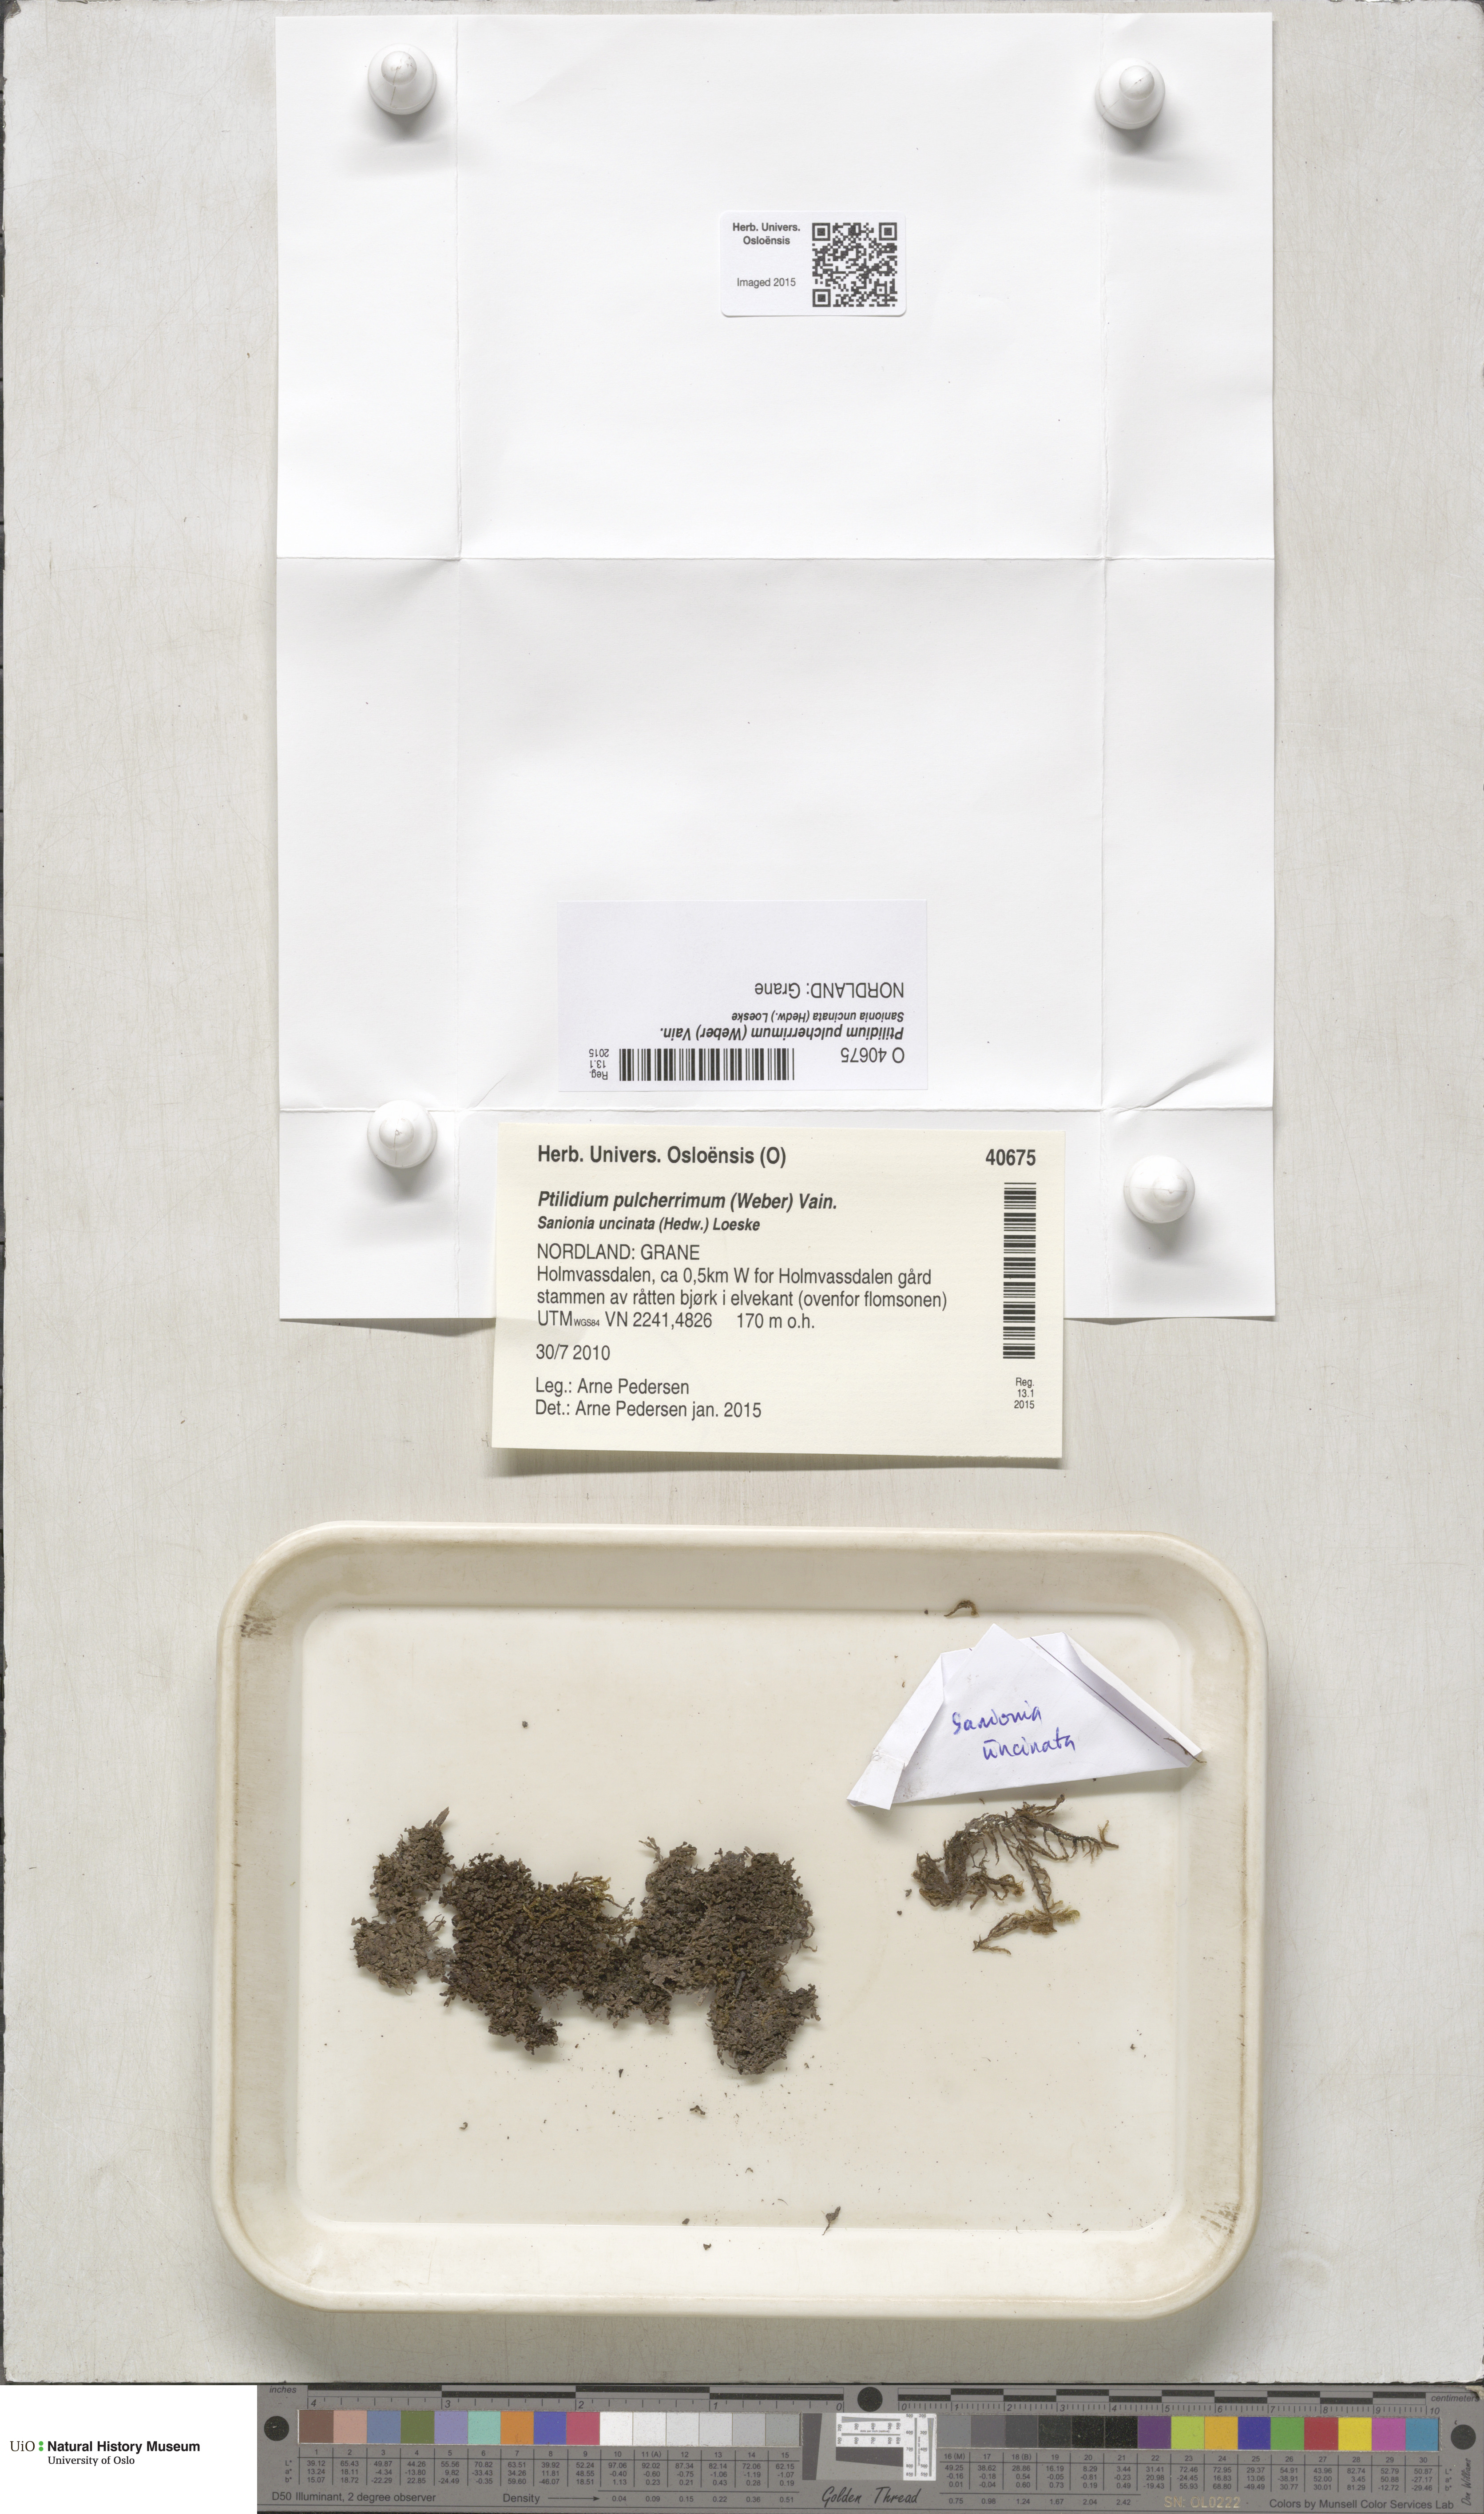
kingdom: Plantae
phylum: Marchantiophyta
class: Jungermanniopsida
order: Ptilidiales
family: Ptilidiaceae
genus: Ptilidium
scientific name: Ptilidium pulcherrimum
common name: Tree fringewort
